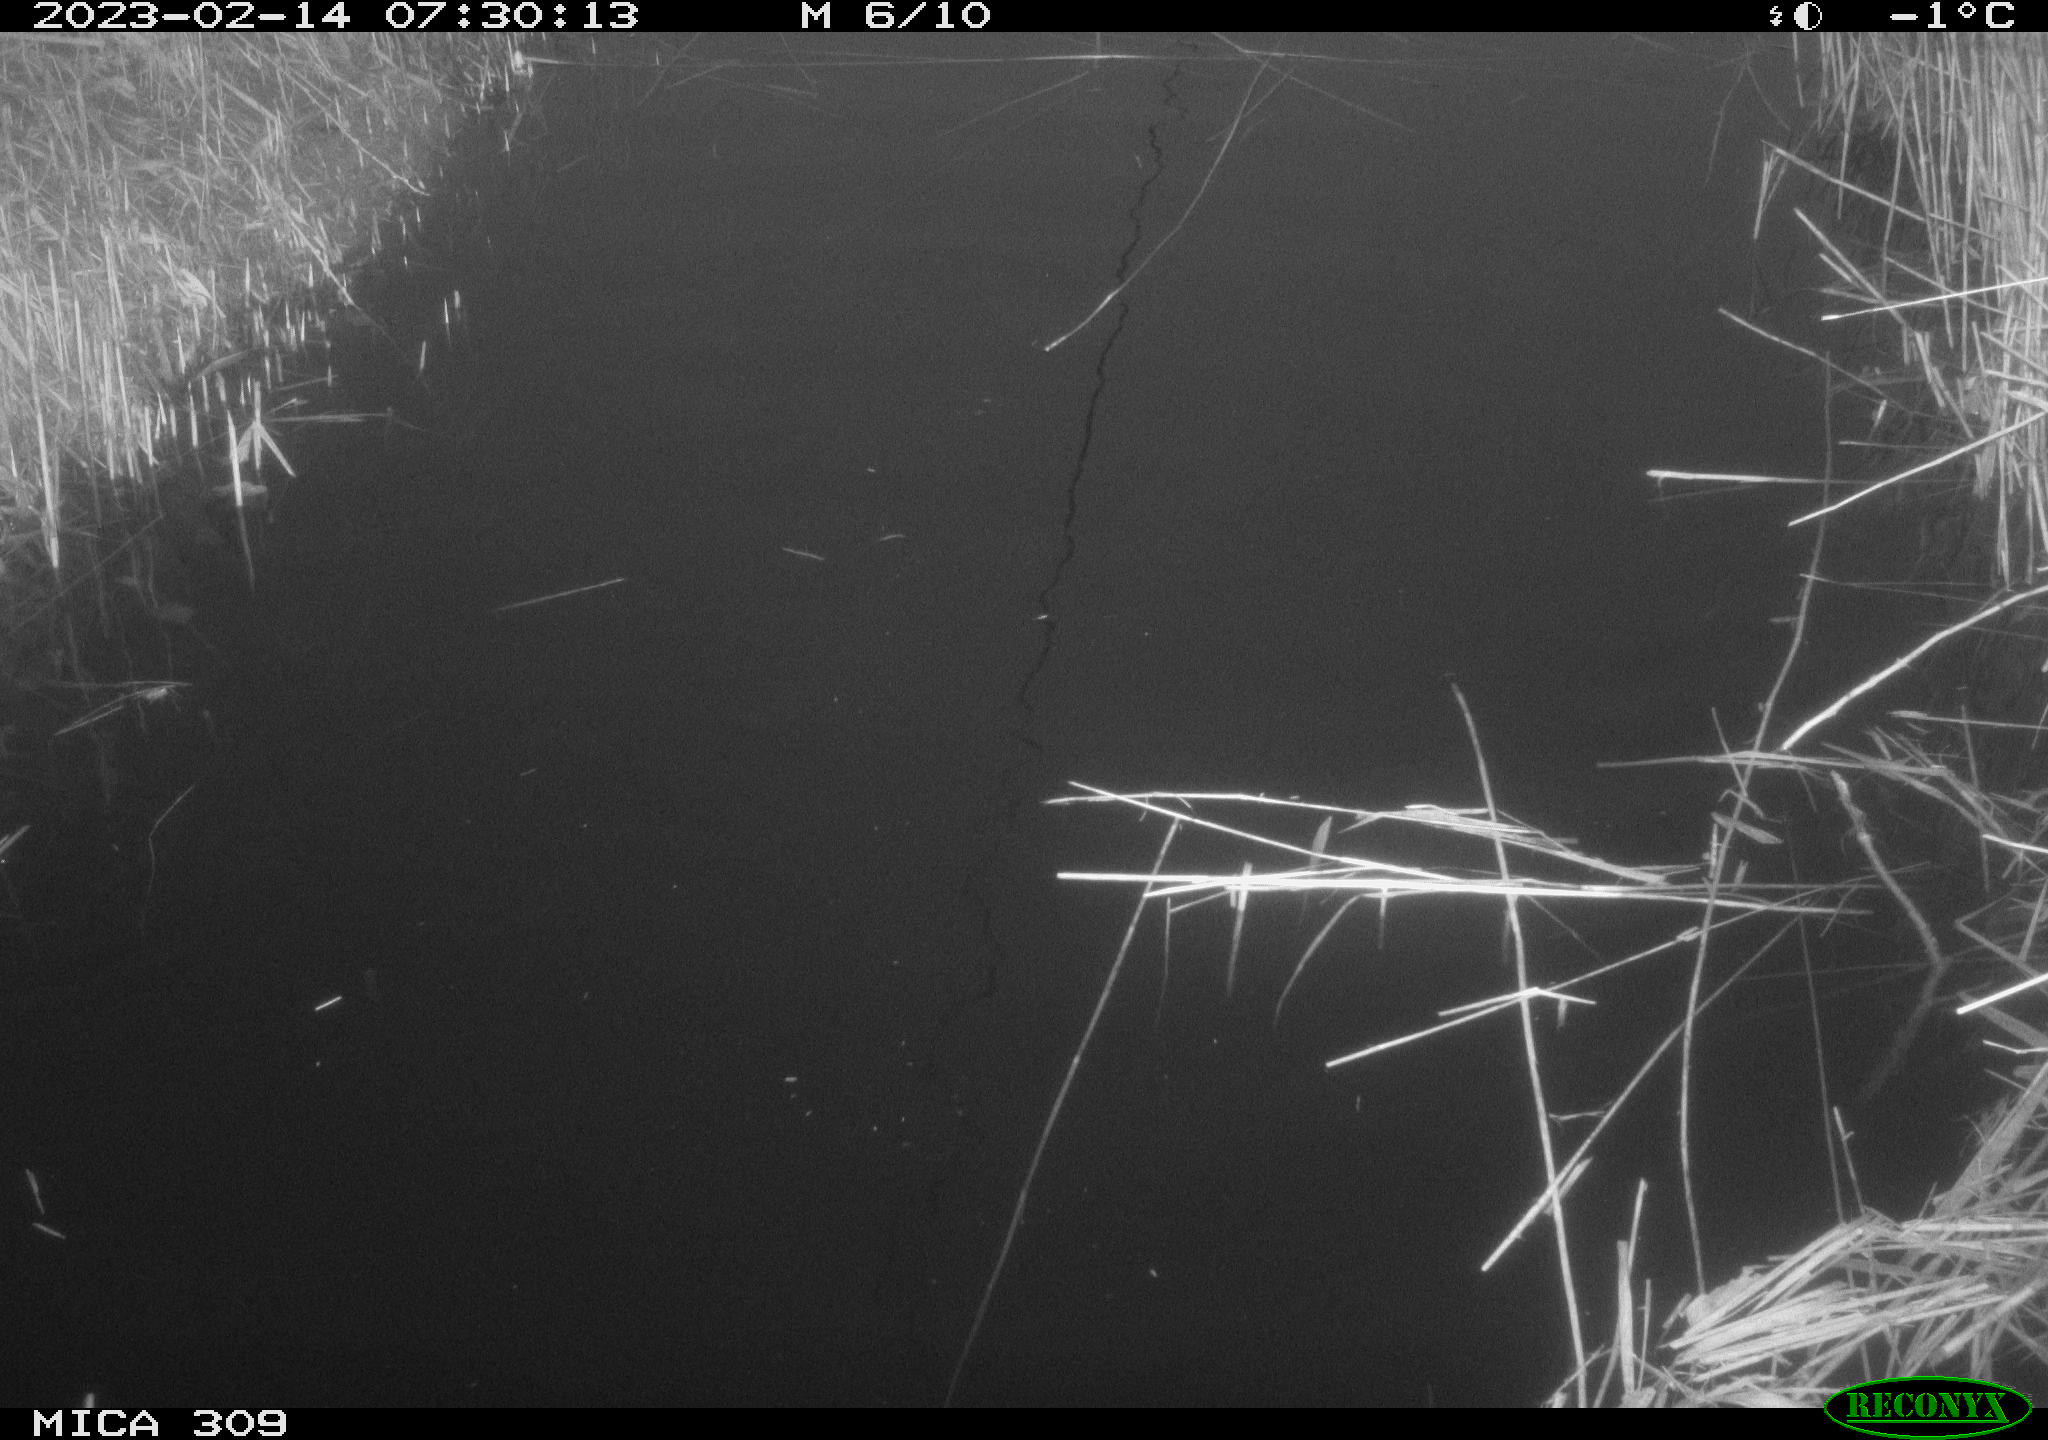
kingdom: Animalia
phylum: Chordata
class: Aves
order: Gruiformes
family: Rallidae
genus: Fulica
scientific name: Fulica atra
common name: Eurasian coot
